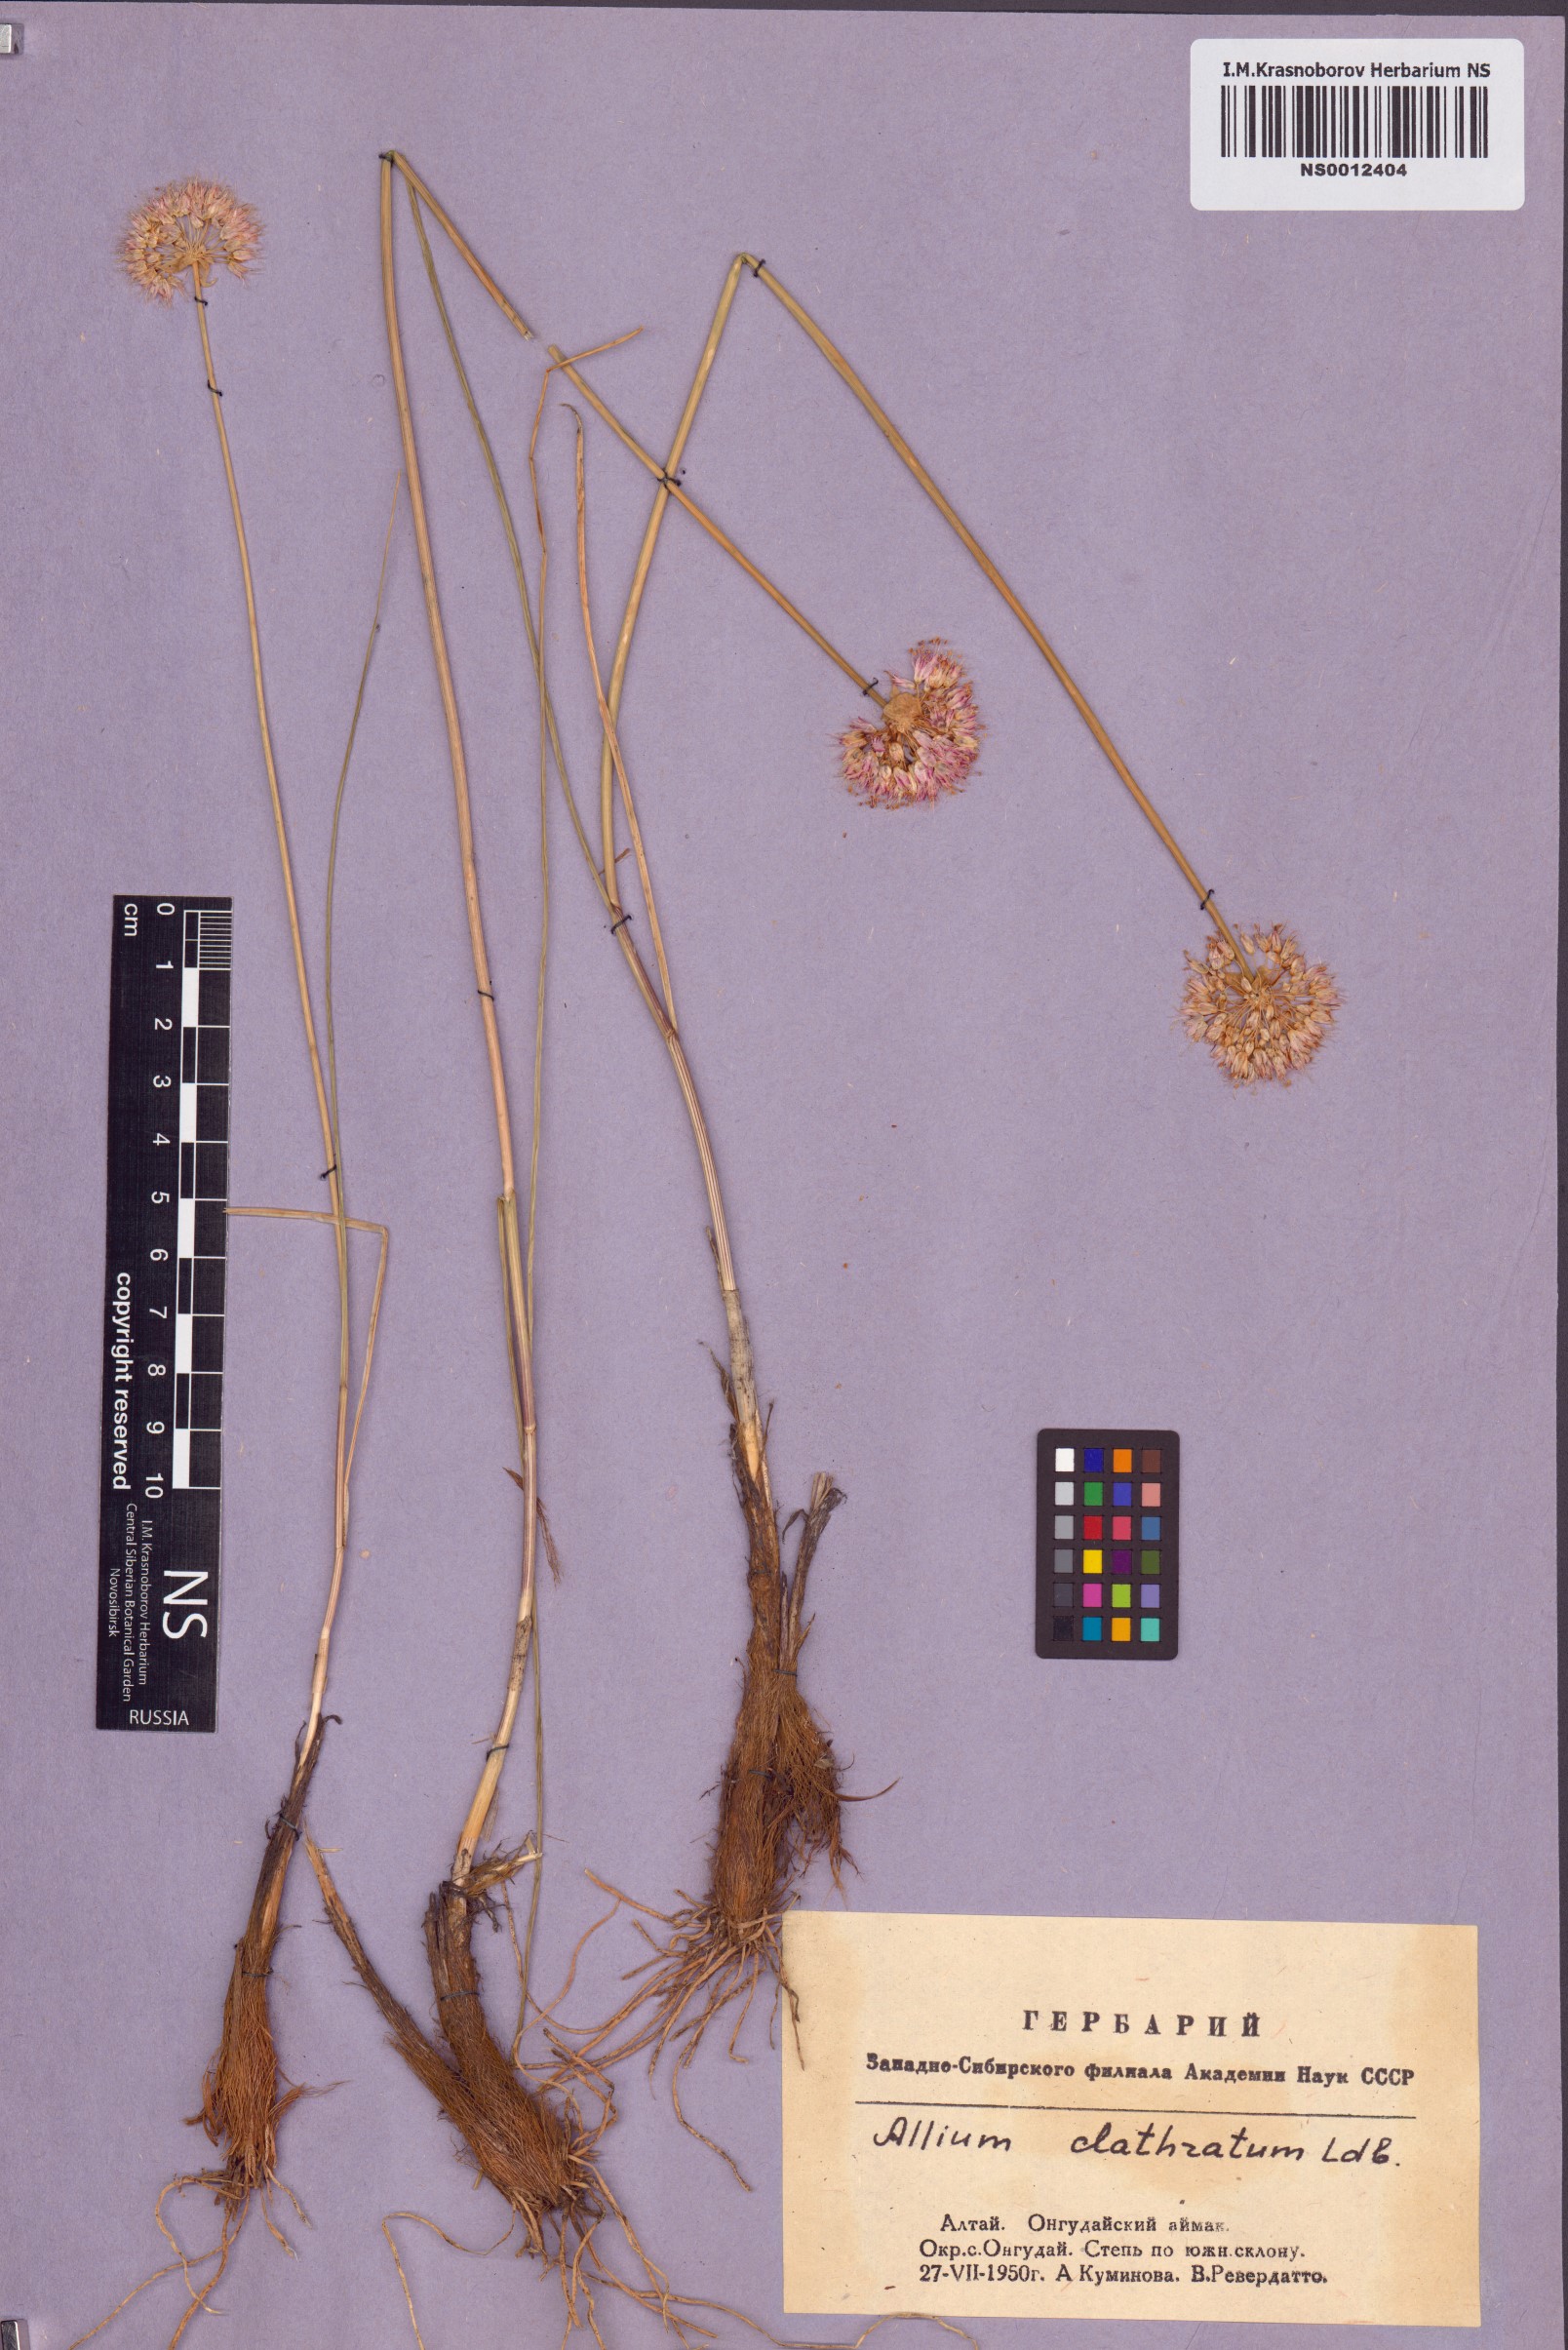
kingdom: Plantae
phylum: Tracheophyta
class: Liliopsida
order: Asparagales
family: Amaryllidaceae
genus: Allium
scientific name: Allium clathratum
